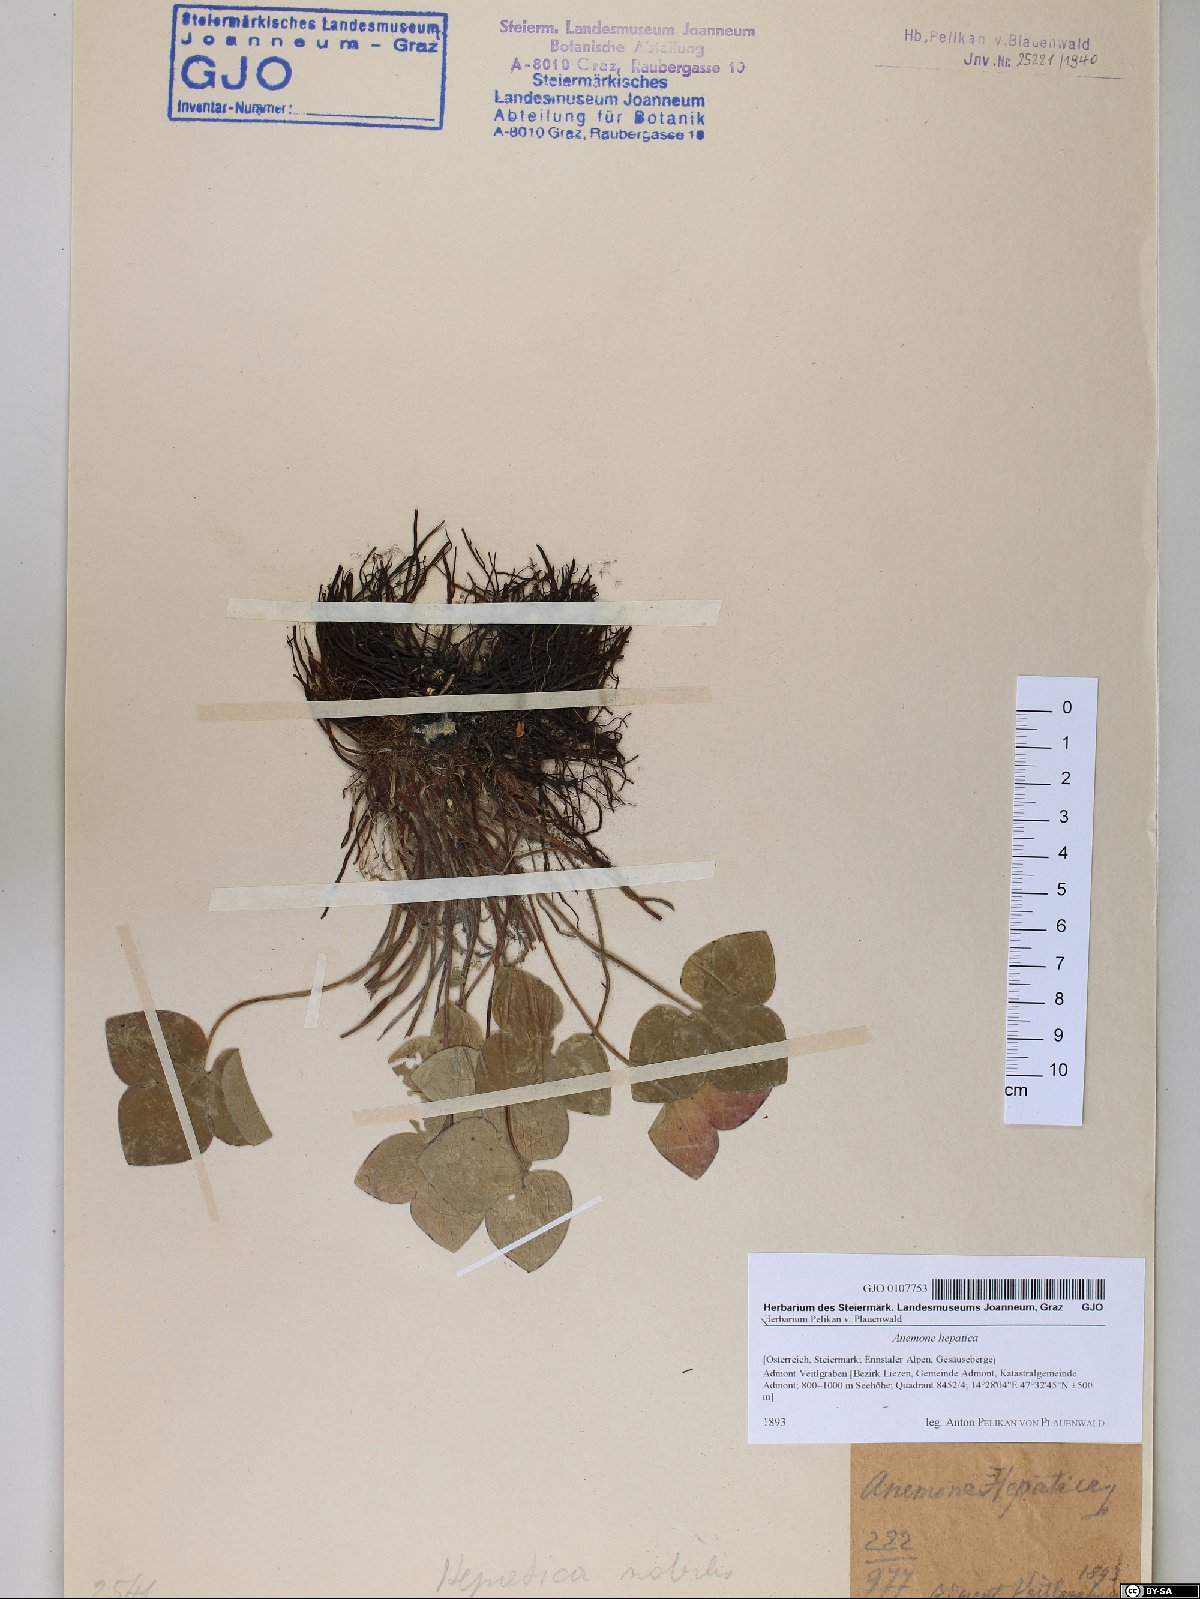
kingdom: Plantae
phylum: Tracheophyta
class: Magnoliopsida
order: Ranunculales
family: Ranunculaceae
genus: Hepatica
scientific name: Hepatica nobilis
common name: Liverleaf
